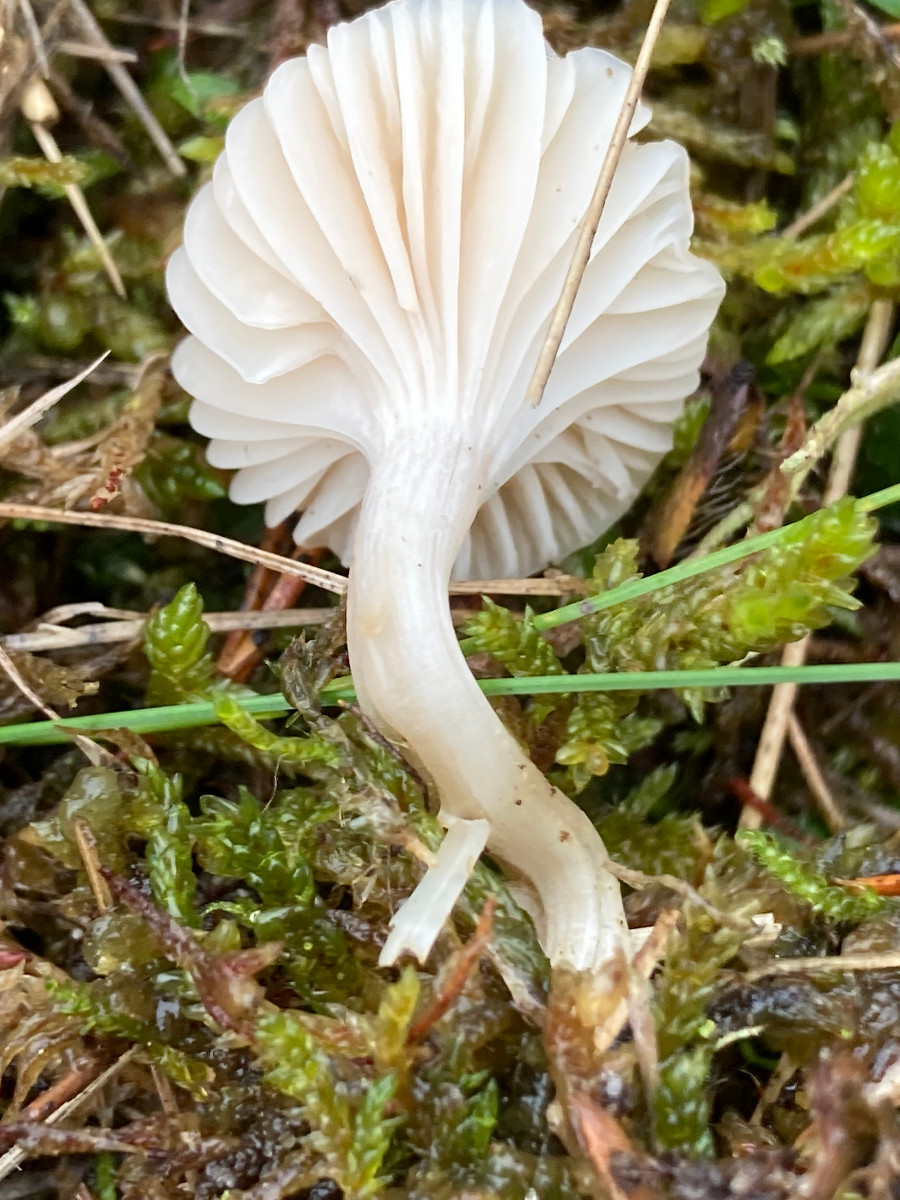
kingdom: Fungi
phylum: Basidiomycota
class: Agaricomycetes
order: Agaricales
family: Hygrophoraceae
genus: Cuphophyllus
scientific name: Cuphophyllus
